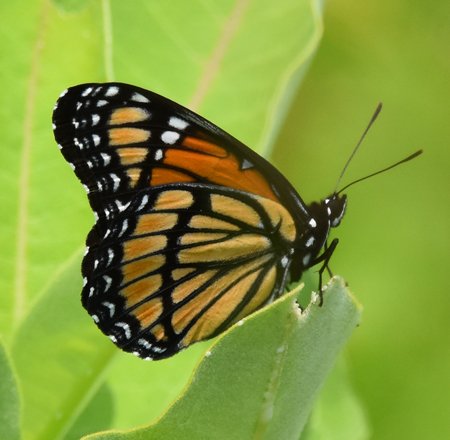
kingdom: Animalia
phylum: Arthropoda
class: Insecta
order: Lepidoptera
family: Nymphalidae
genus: Limenitis
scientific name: Limenitis archippus
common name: Viceroy
